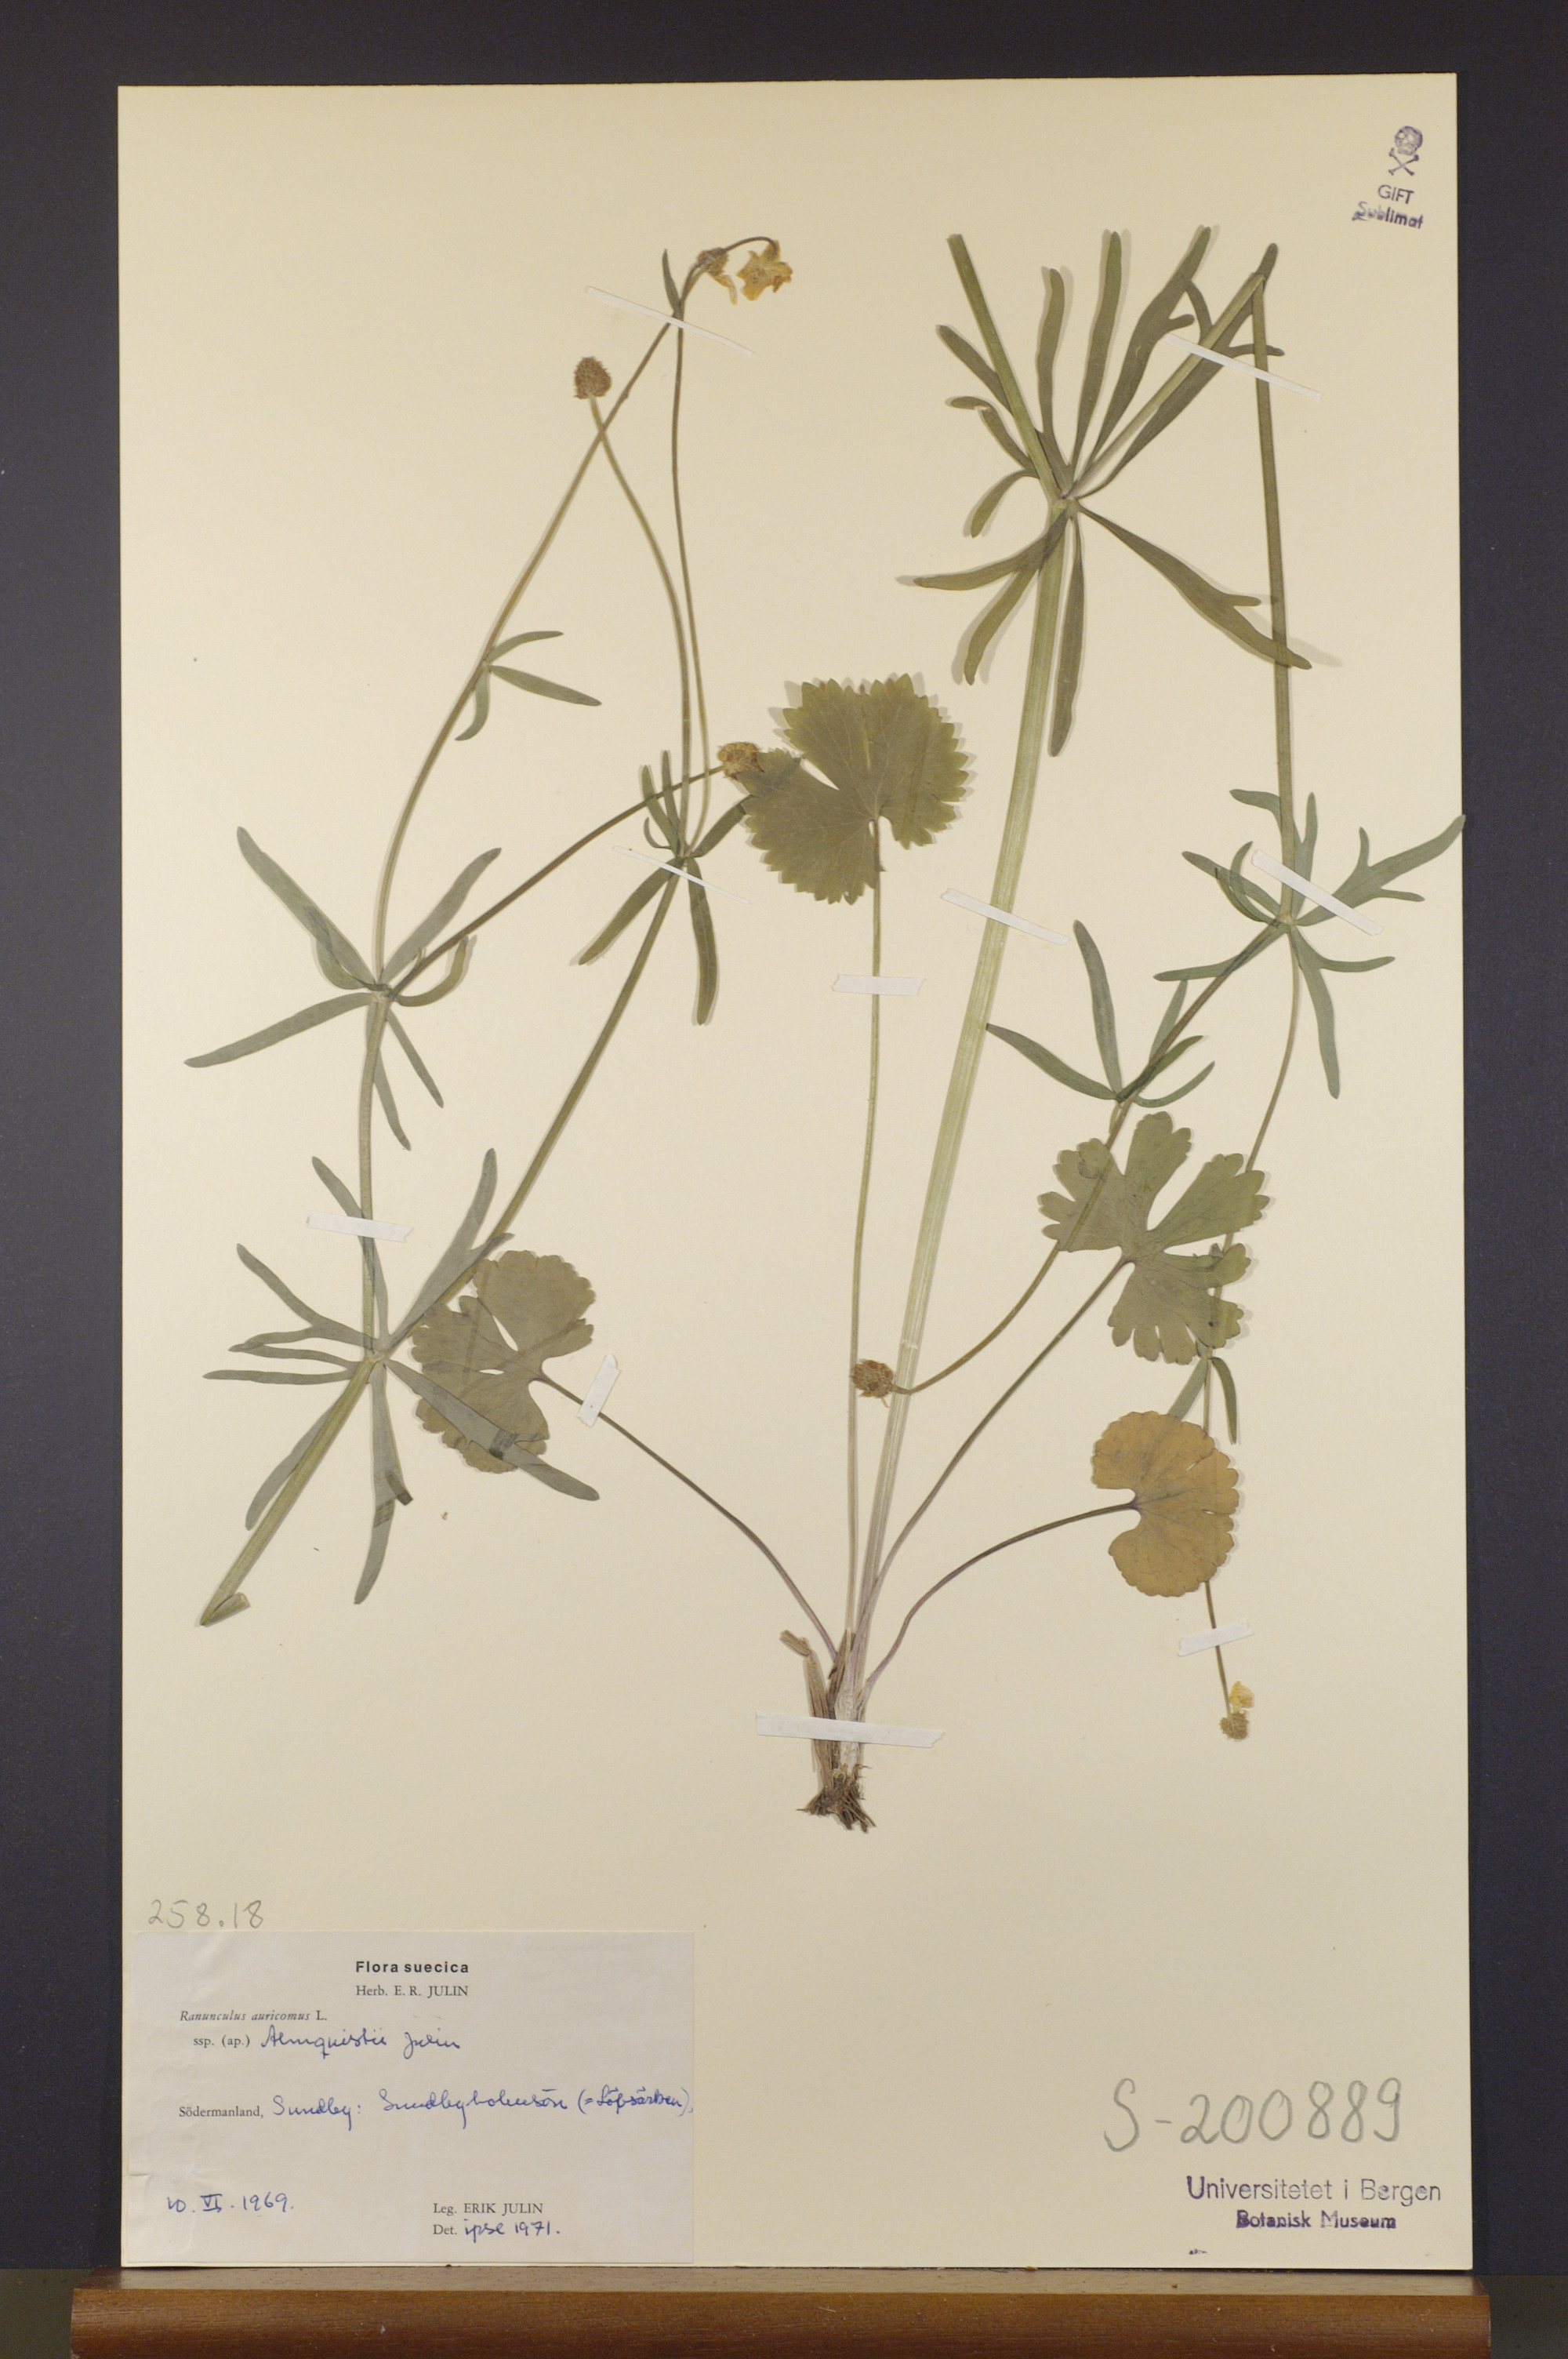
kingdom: Plantae
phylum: Tracheophyta
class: Magnoliopsida
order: Ranunculales
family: Ranunculaceae
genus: Ranunculus
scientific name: Ranunculus almquistii
